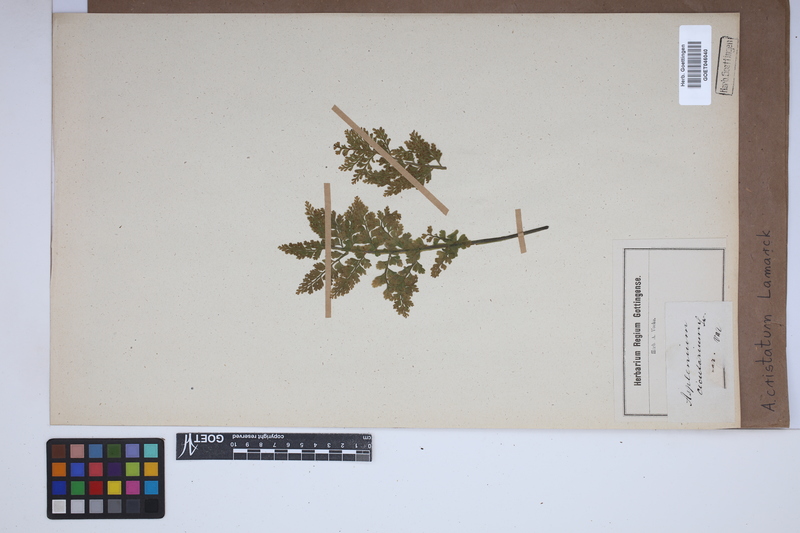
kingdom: Plantae
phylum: Tracheophyta
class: Polypodiopsida
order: Polypodiales
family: Aspleniaceae
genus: Asplenium
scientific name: Asplenium cristatum
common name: Parsley spleenwort
